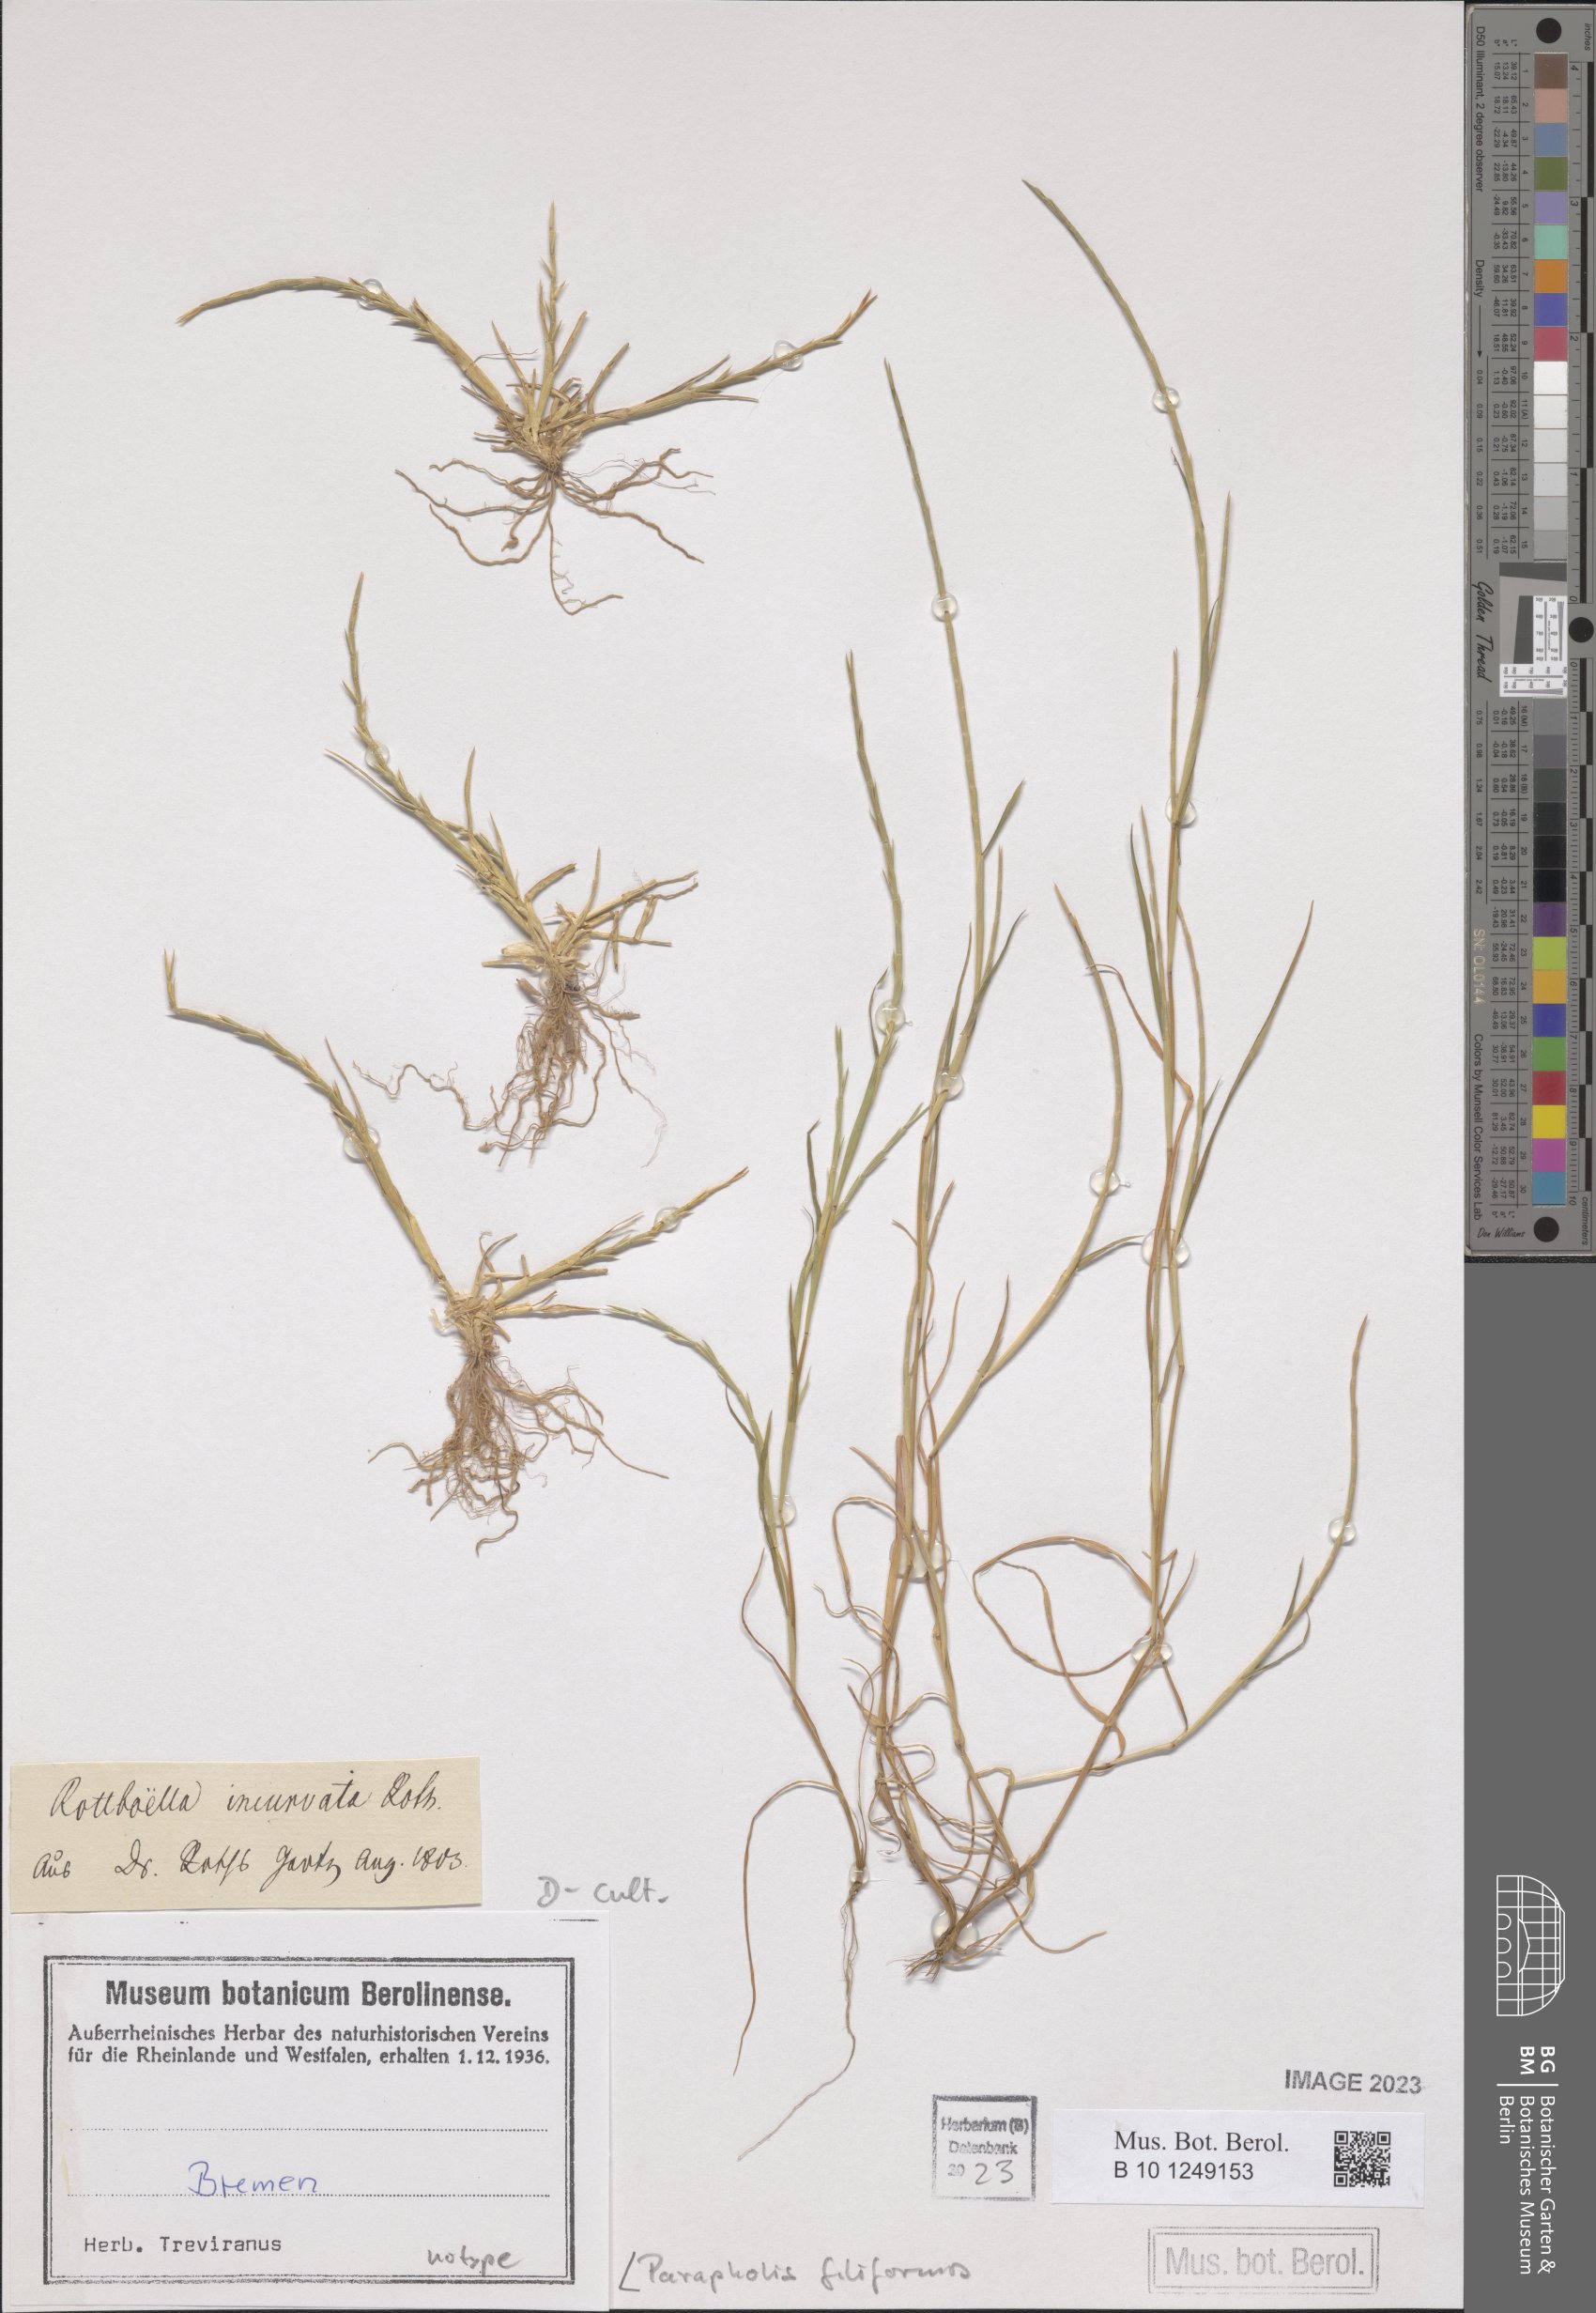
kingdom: Plantae
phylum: Tracheophyta
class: Liliopsida
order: Poales
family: Poaceae
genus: Parapholis
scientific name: Parapholis incurva
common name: Curved sicklegrass
